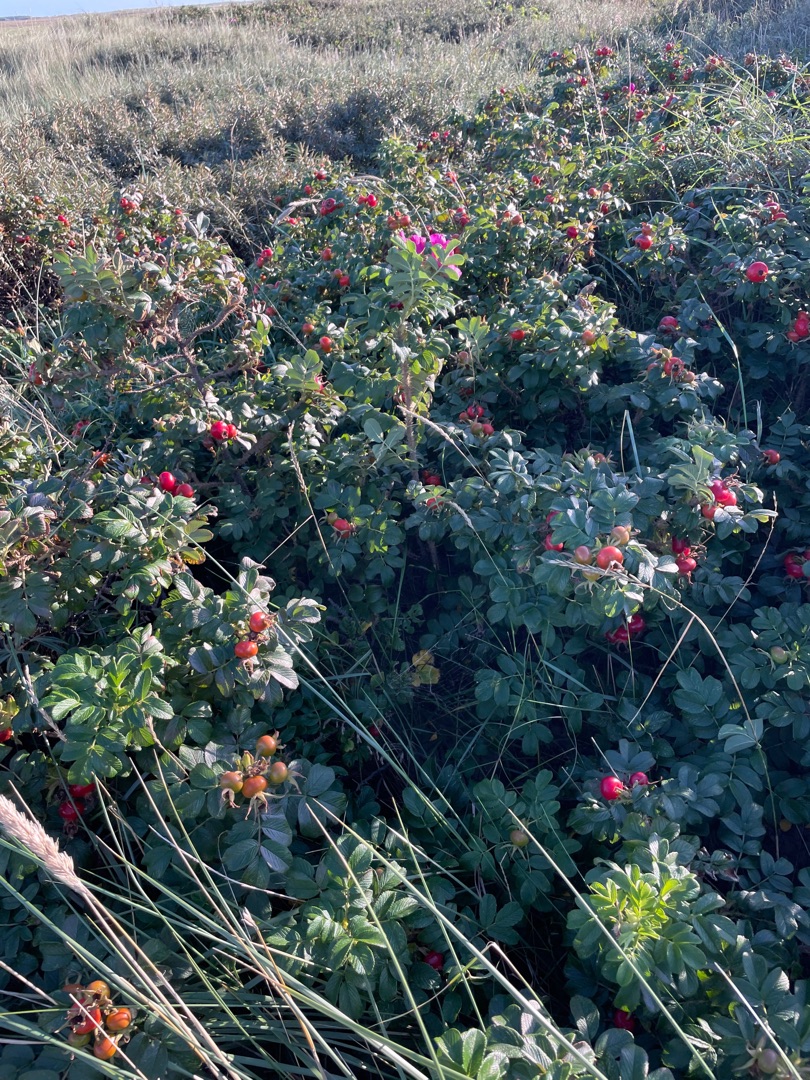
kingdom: Plantae
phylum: Tracheophyta
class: Magnoliopsida
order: Rosales
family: Rosaceae
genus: Rosa
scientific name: Rosa rugosa
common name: Rynket rose
